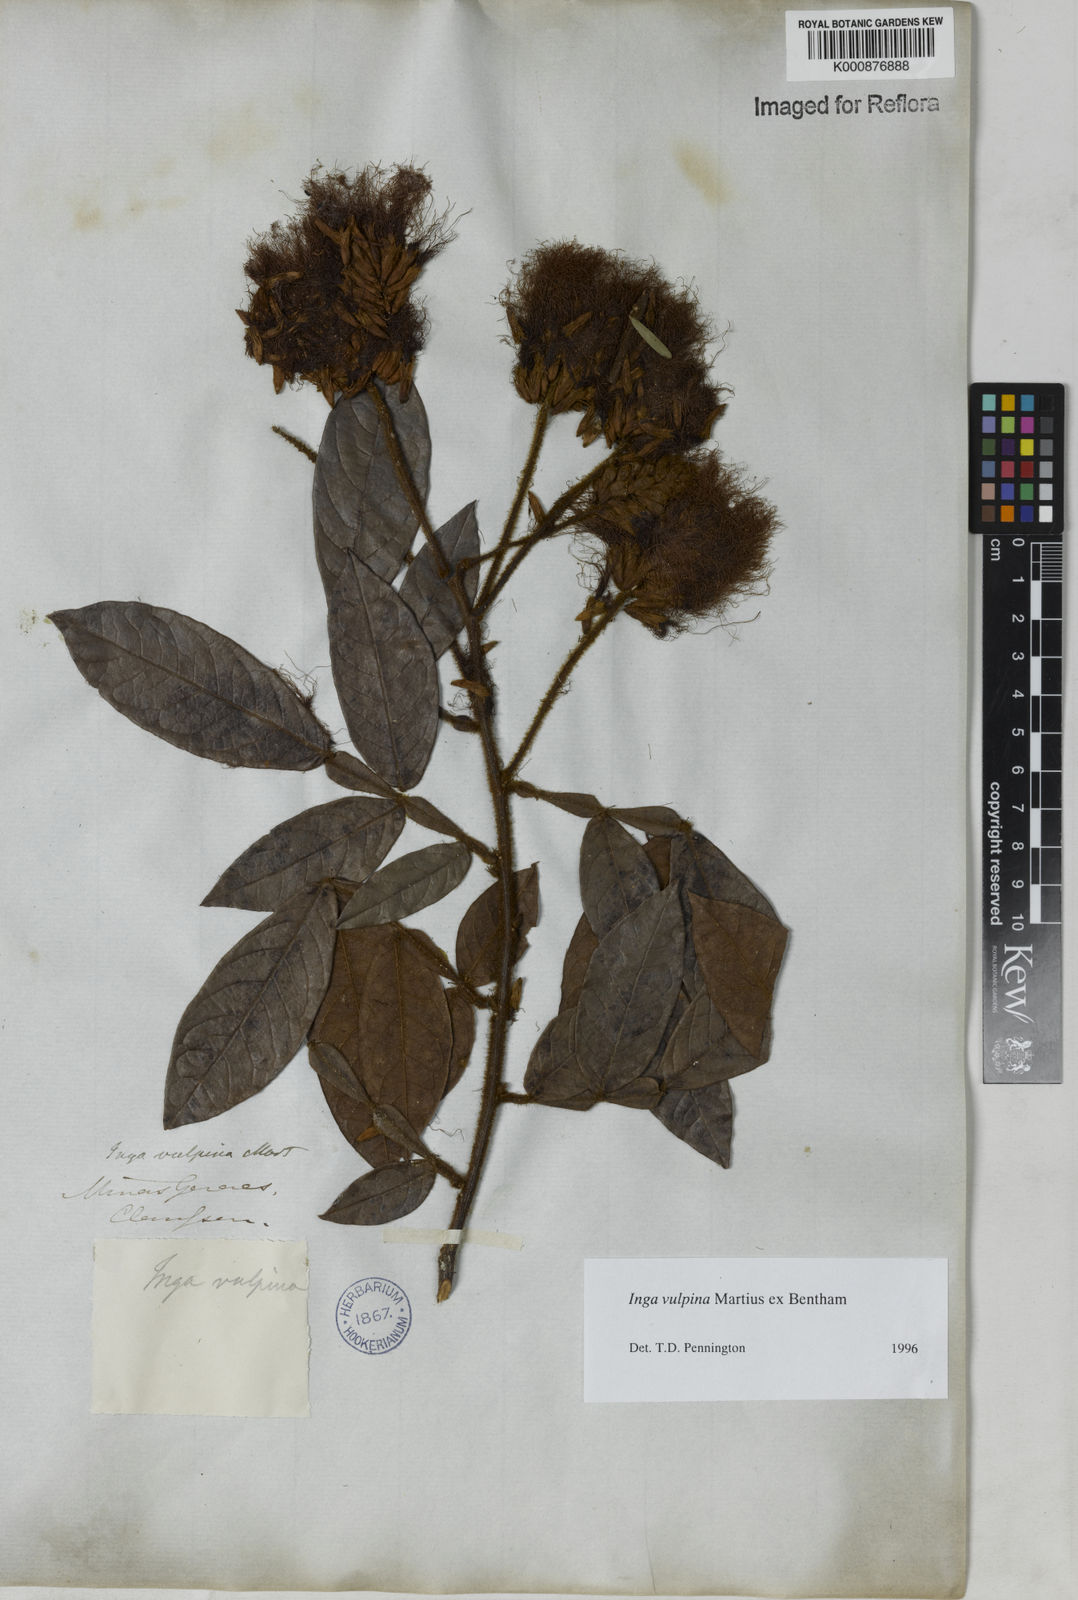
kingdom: Plantae
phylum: Tracheophyta
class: Magnoliopsida
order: Fabales
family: Fabaceae
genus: Inga
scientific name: Inga vulpina
